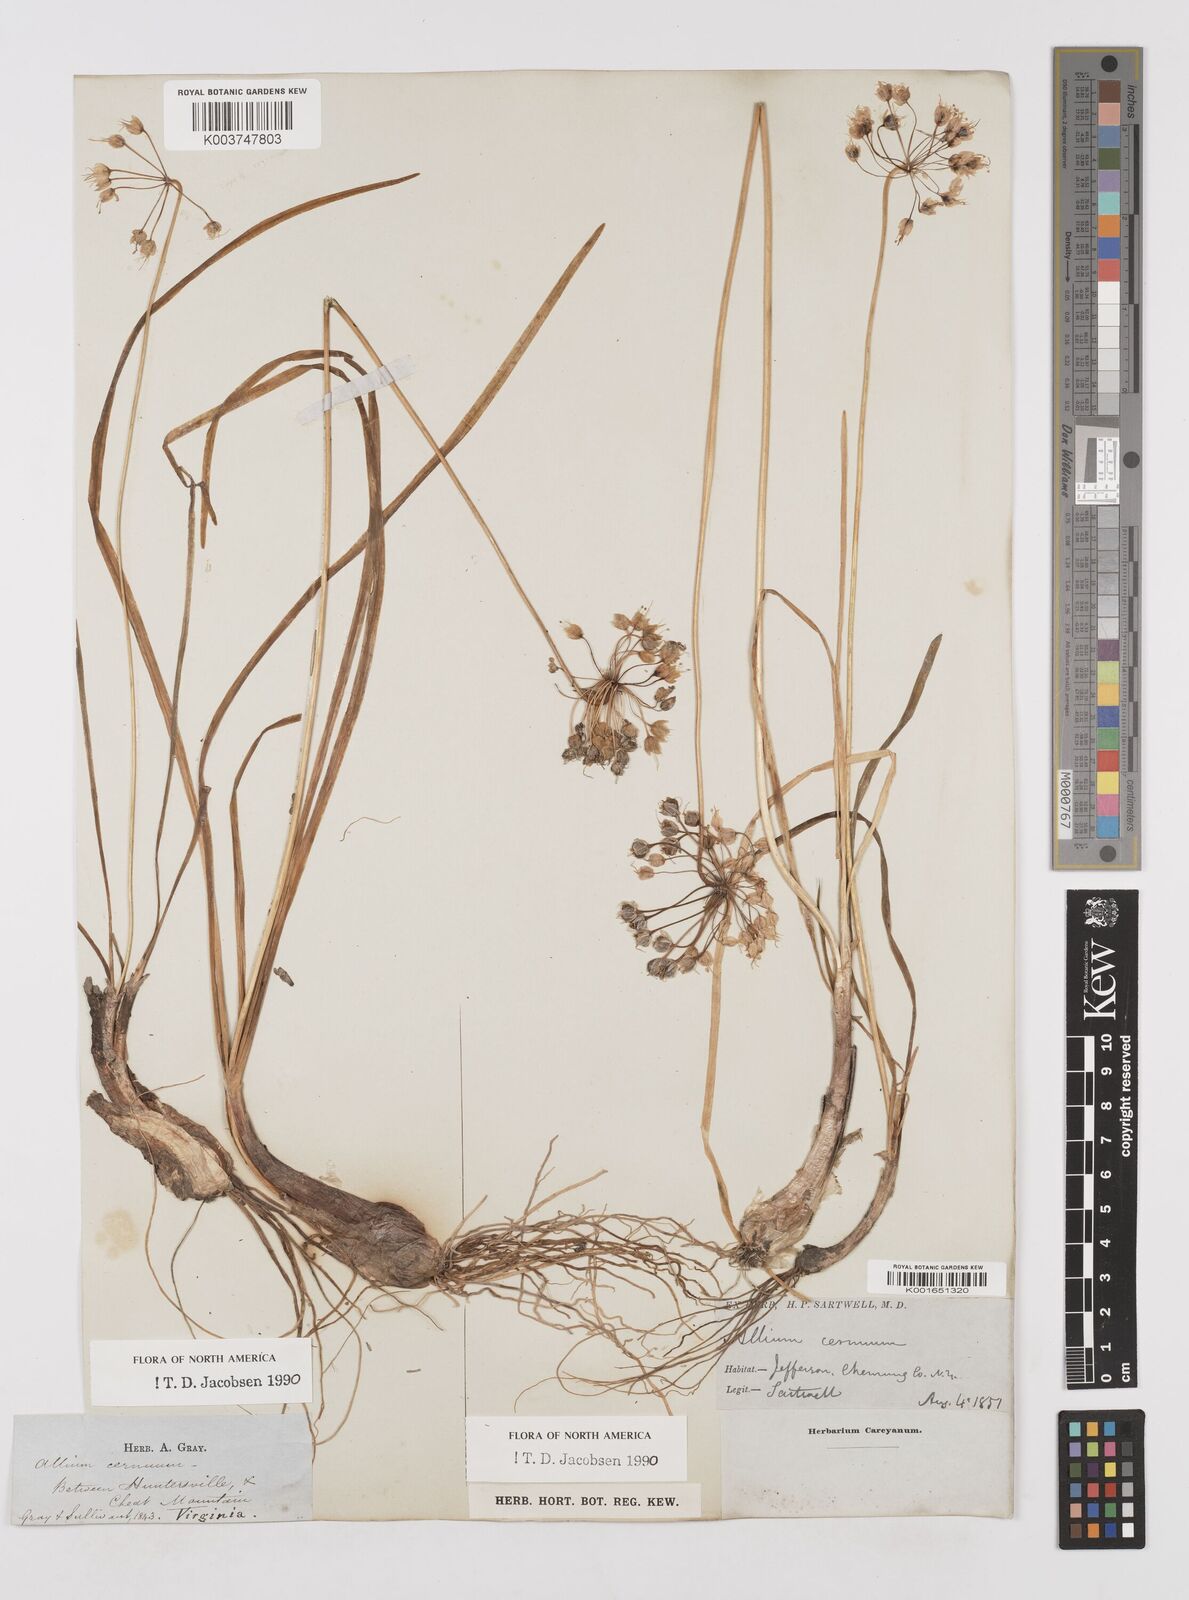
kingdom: Plantae
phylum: Tracheophyta
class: Liliopsida
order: Asparagales
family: Amaryllidaceae
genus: Allium
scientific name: Allium cernuum
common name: Nodding onion
